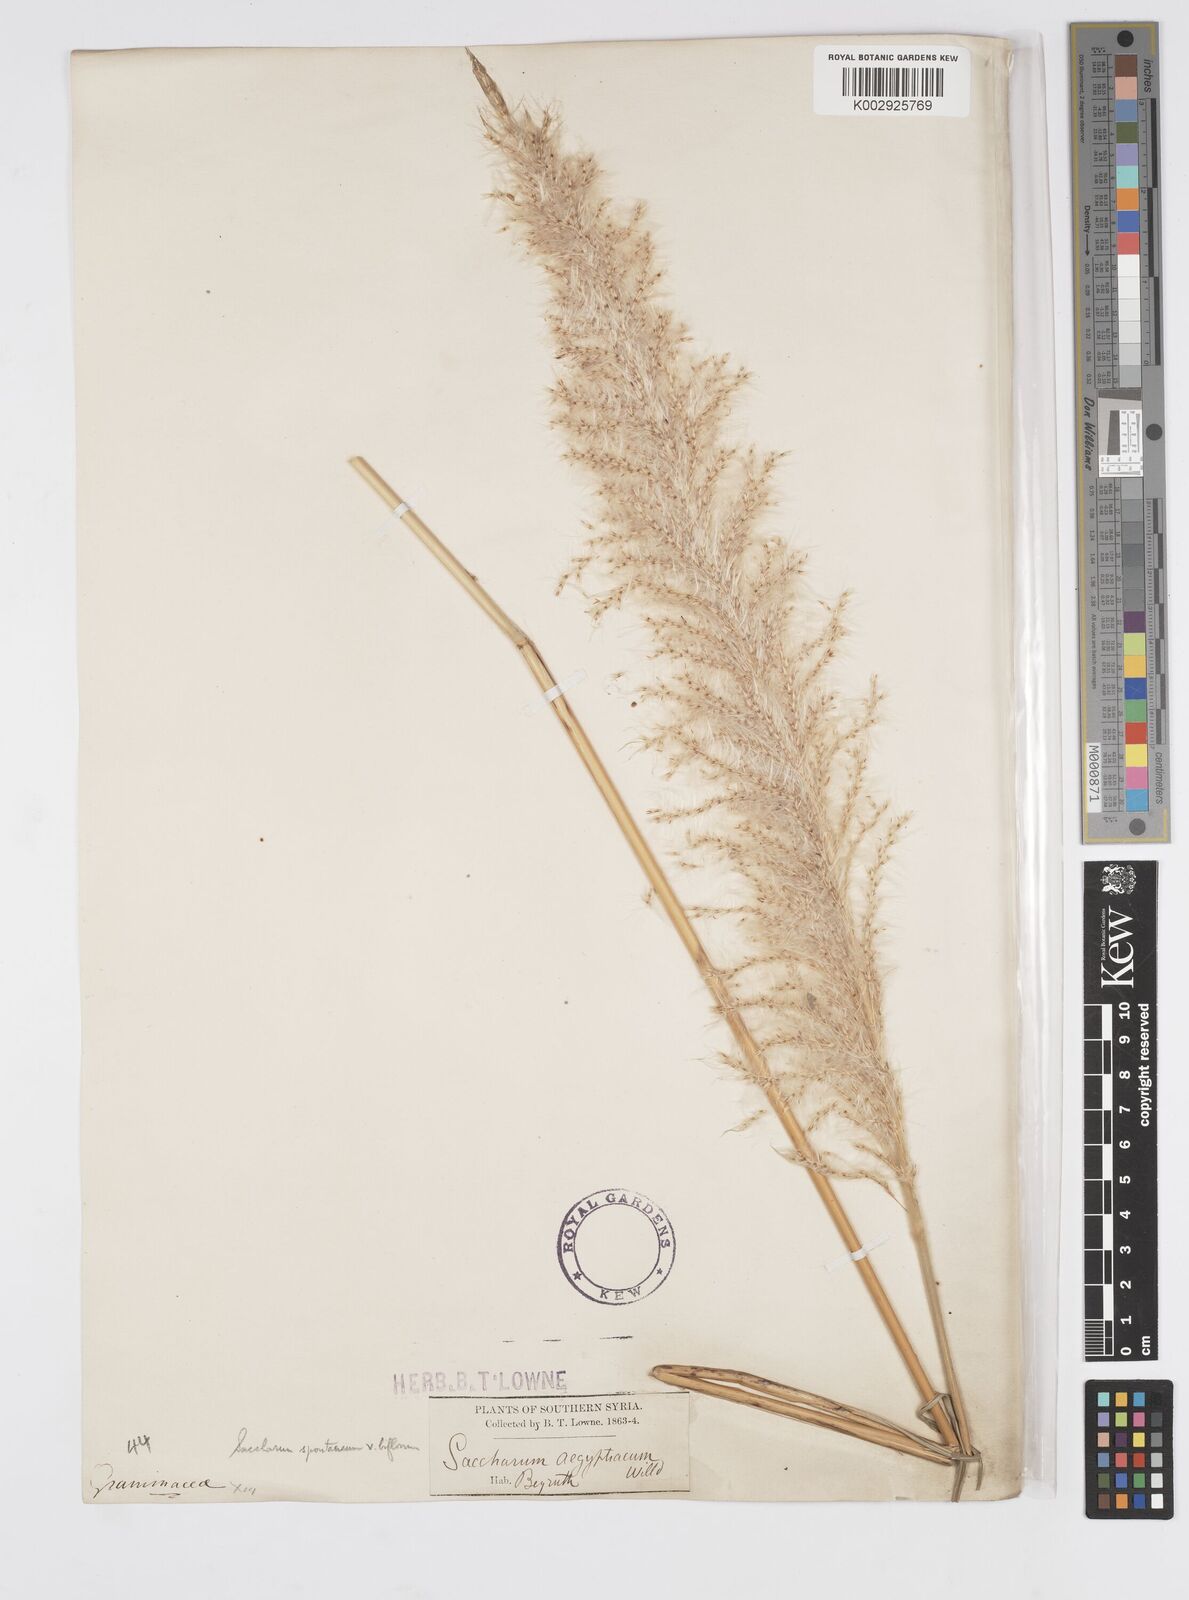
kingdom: Plantae
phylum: Tracheophyta
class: Liliopsida
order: Poales
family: Poaceae
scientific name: Poaceae
